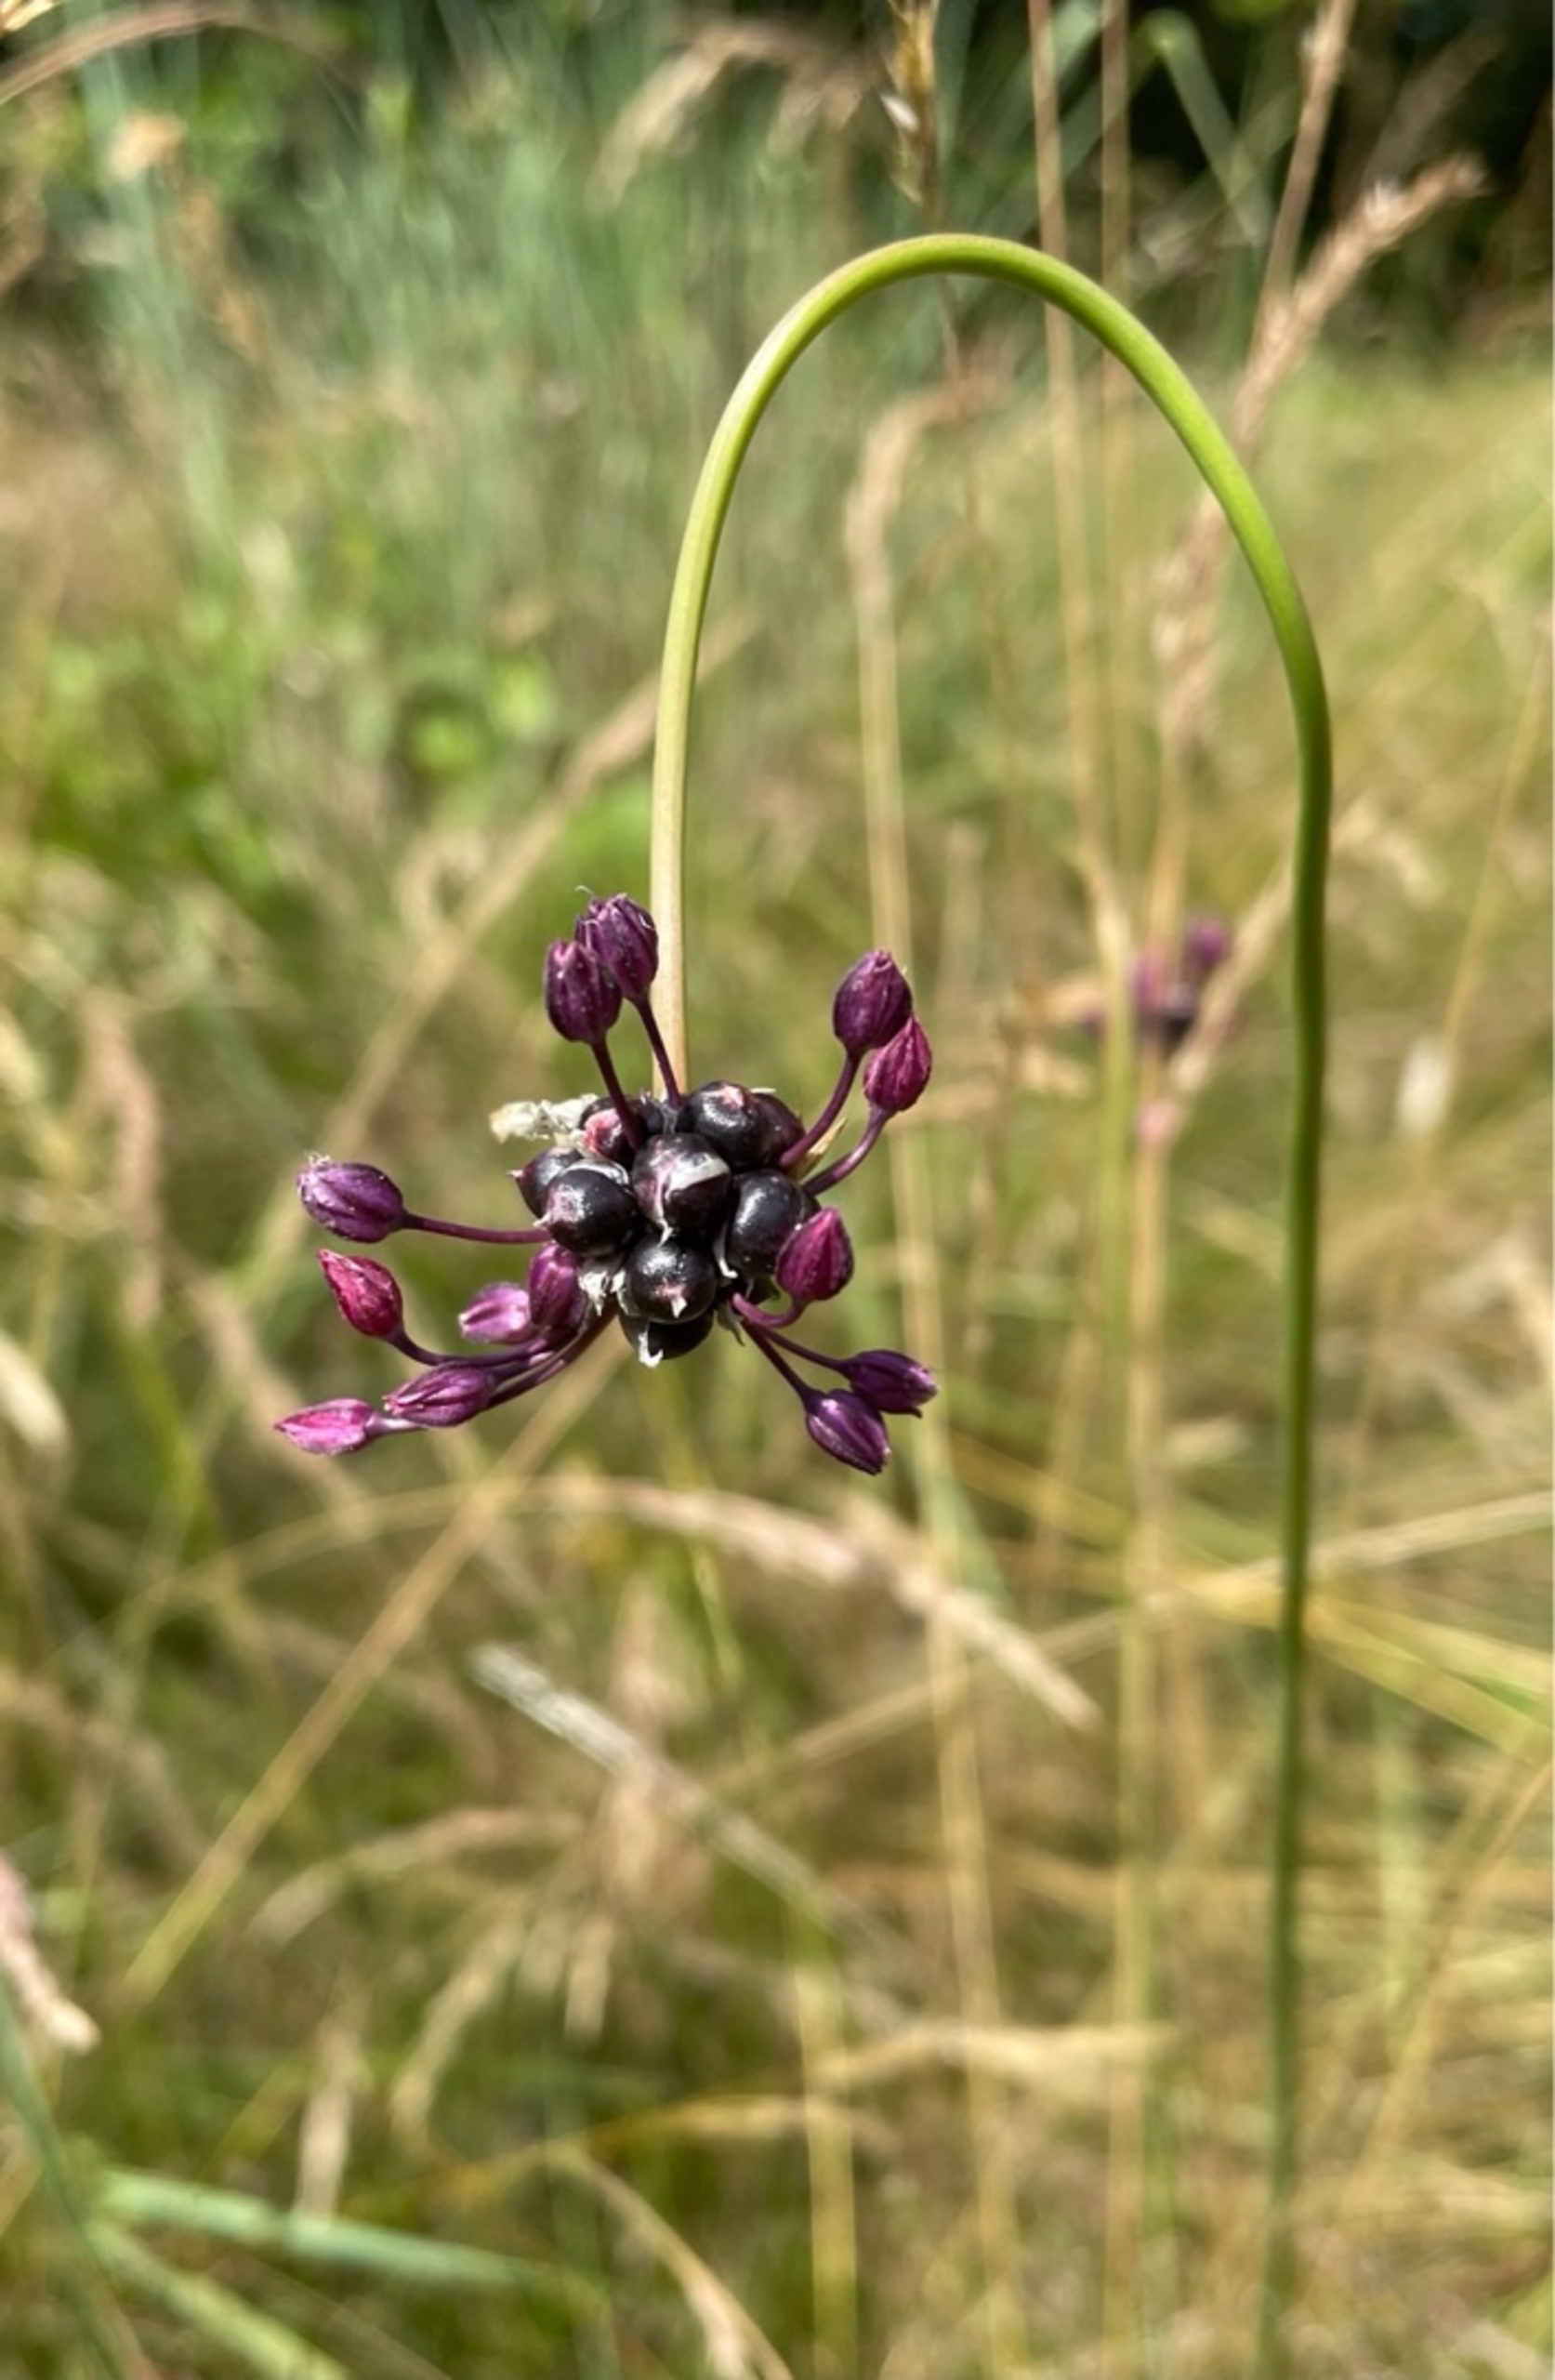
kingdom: Plantae
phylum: Tracheophyta
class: Liliopsida
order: Asparagales
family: Amaryllidaceae
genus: Allium
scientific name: Allium scorodoprasum
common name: Skov-løg
